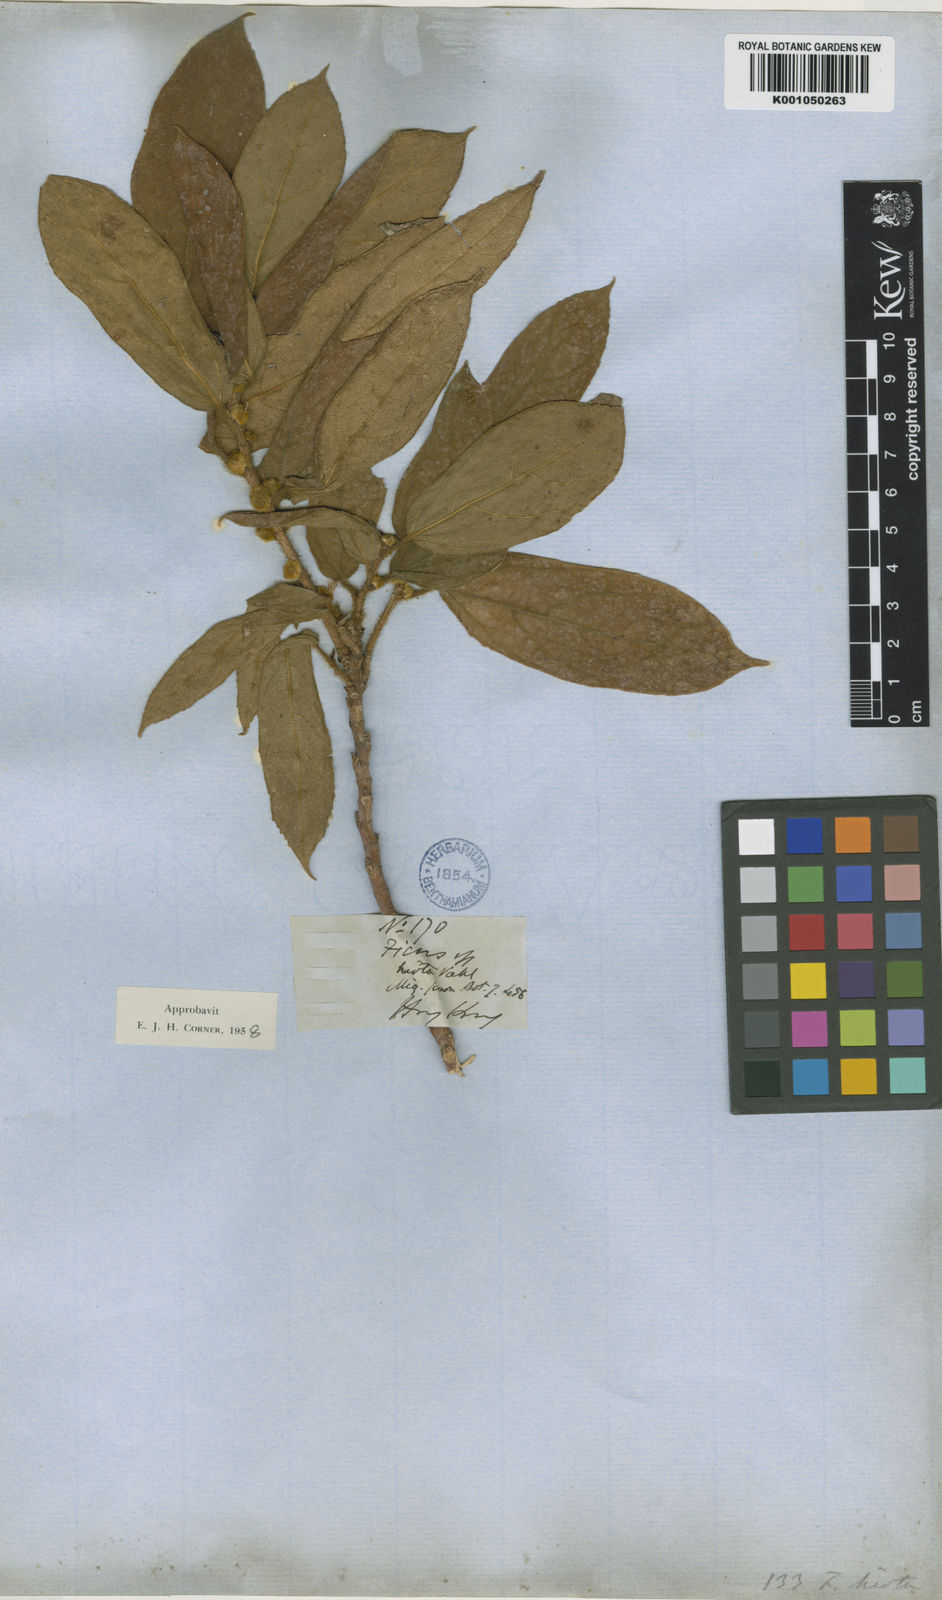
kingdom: Plantae
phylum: Tracheophyta
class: Magnoliopsida
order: Rosales
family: Moraceae
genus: Ficus
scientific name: Ficus simplicissima
